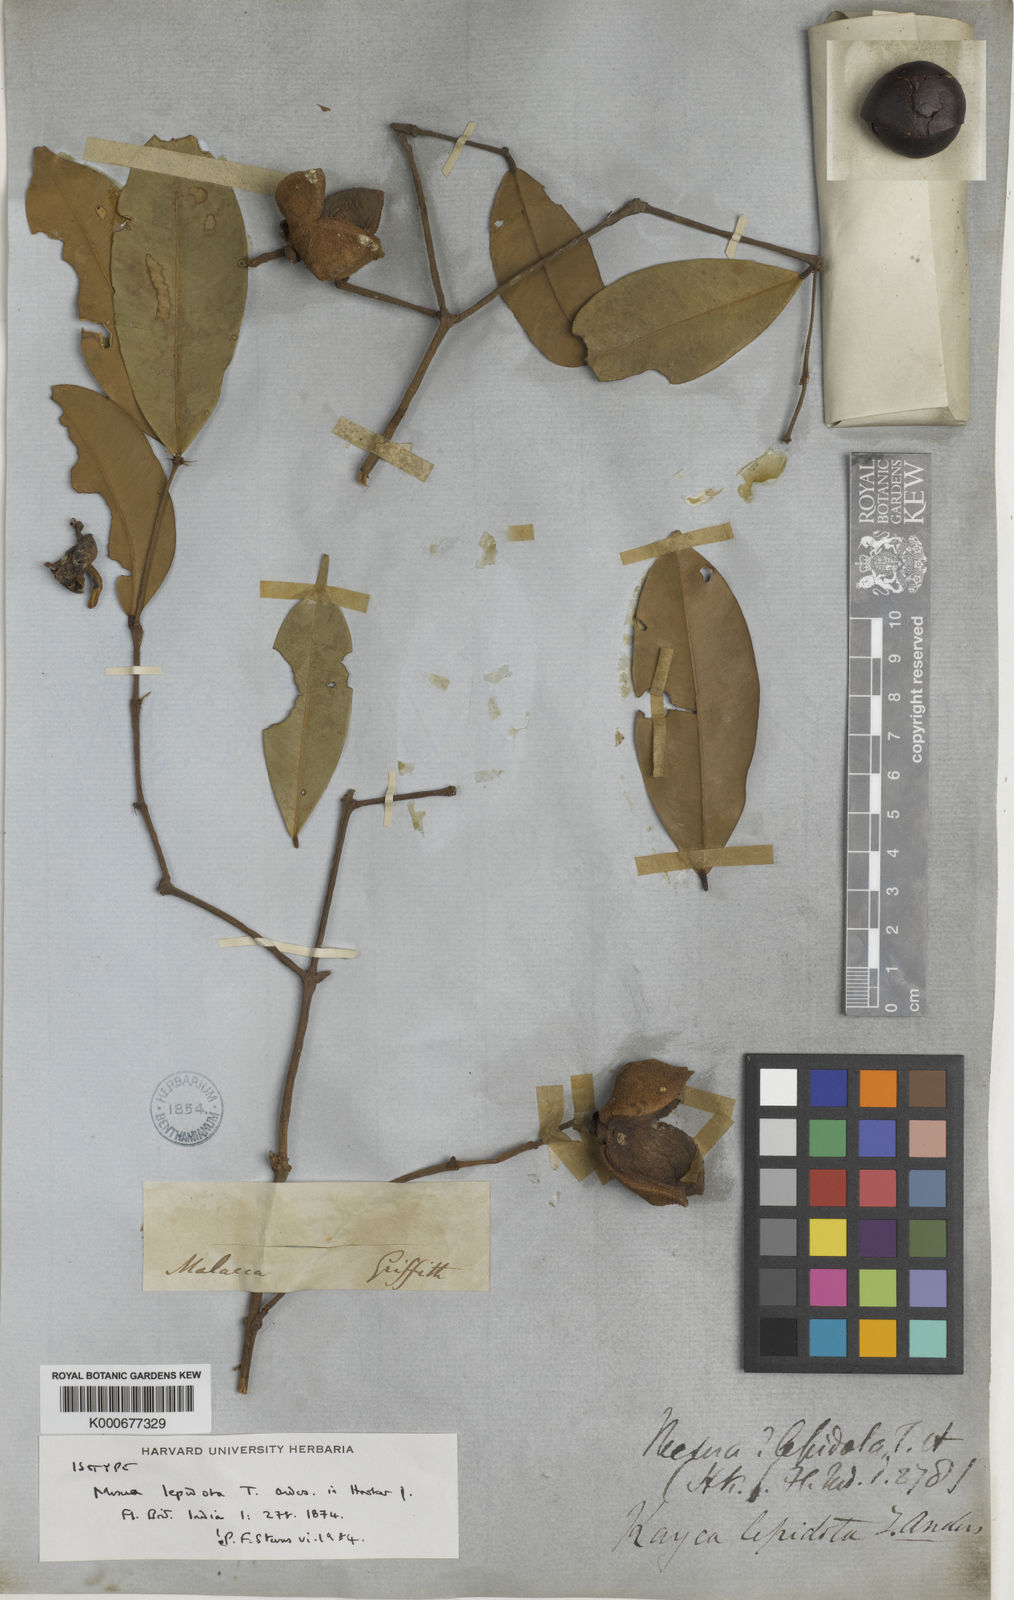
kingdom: Plantae
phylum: Tracheophyta
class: Magnoliopsida
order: Malpighiales
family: Calophyllaceae
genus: Kayea
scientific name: Kayea lepidota
